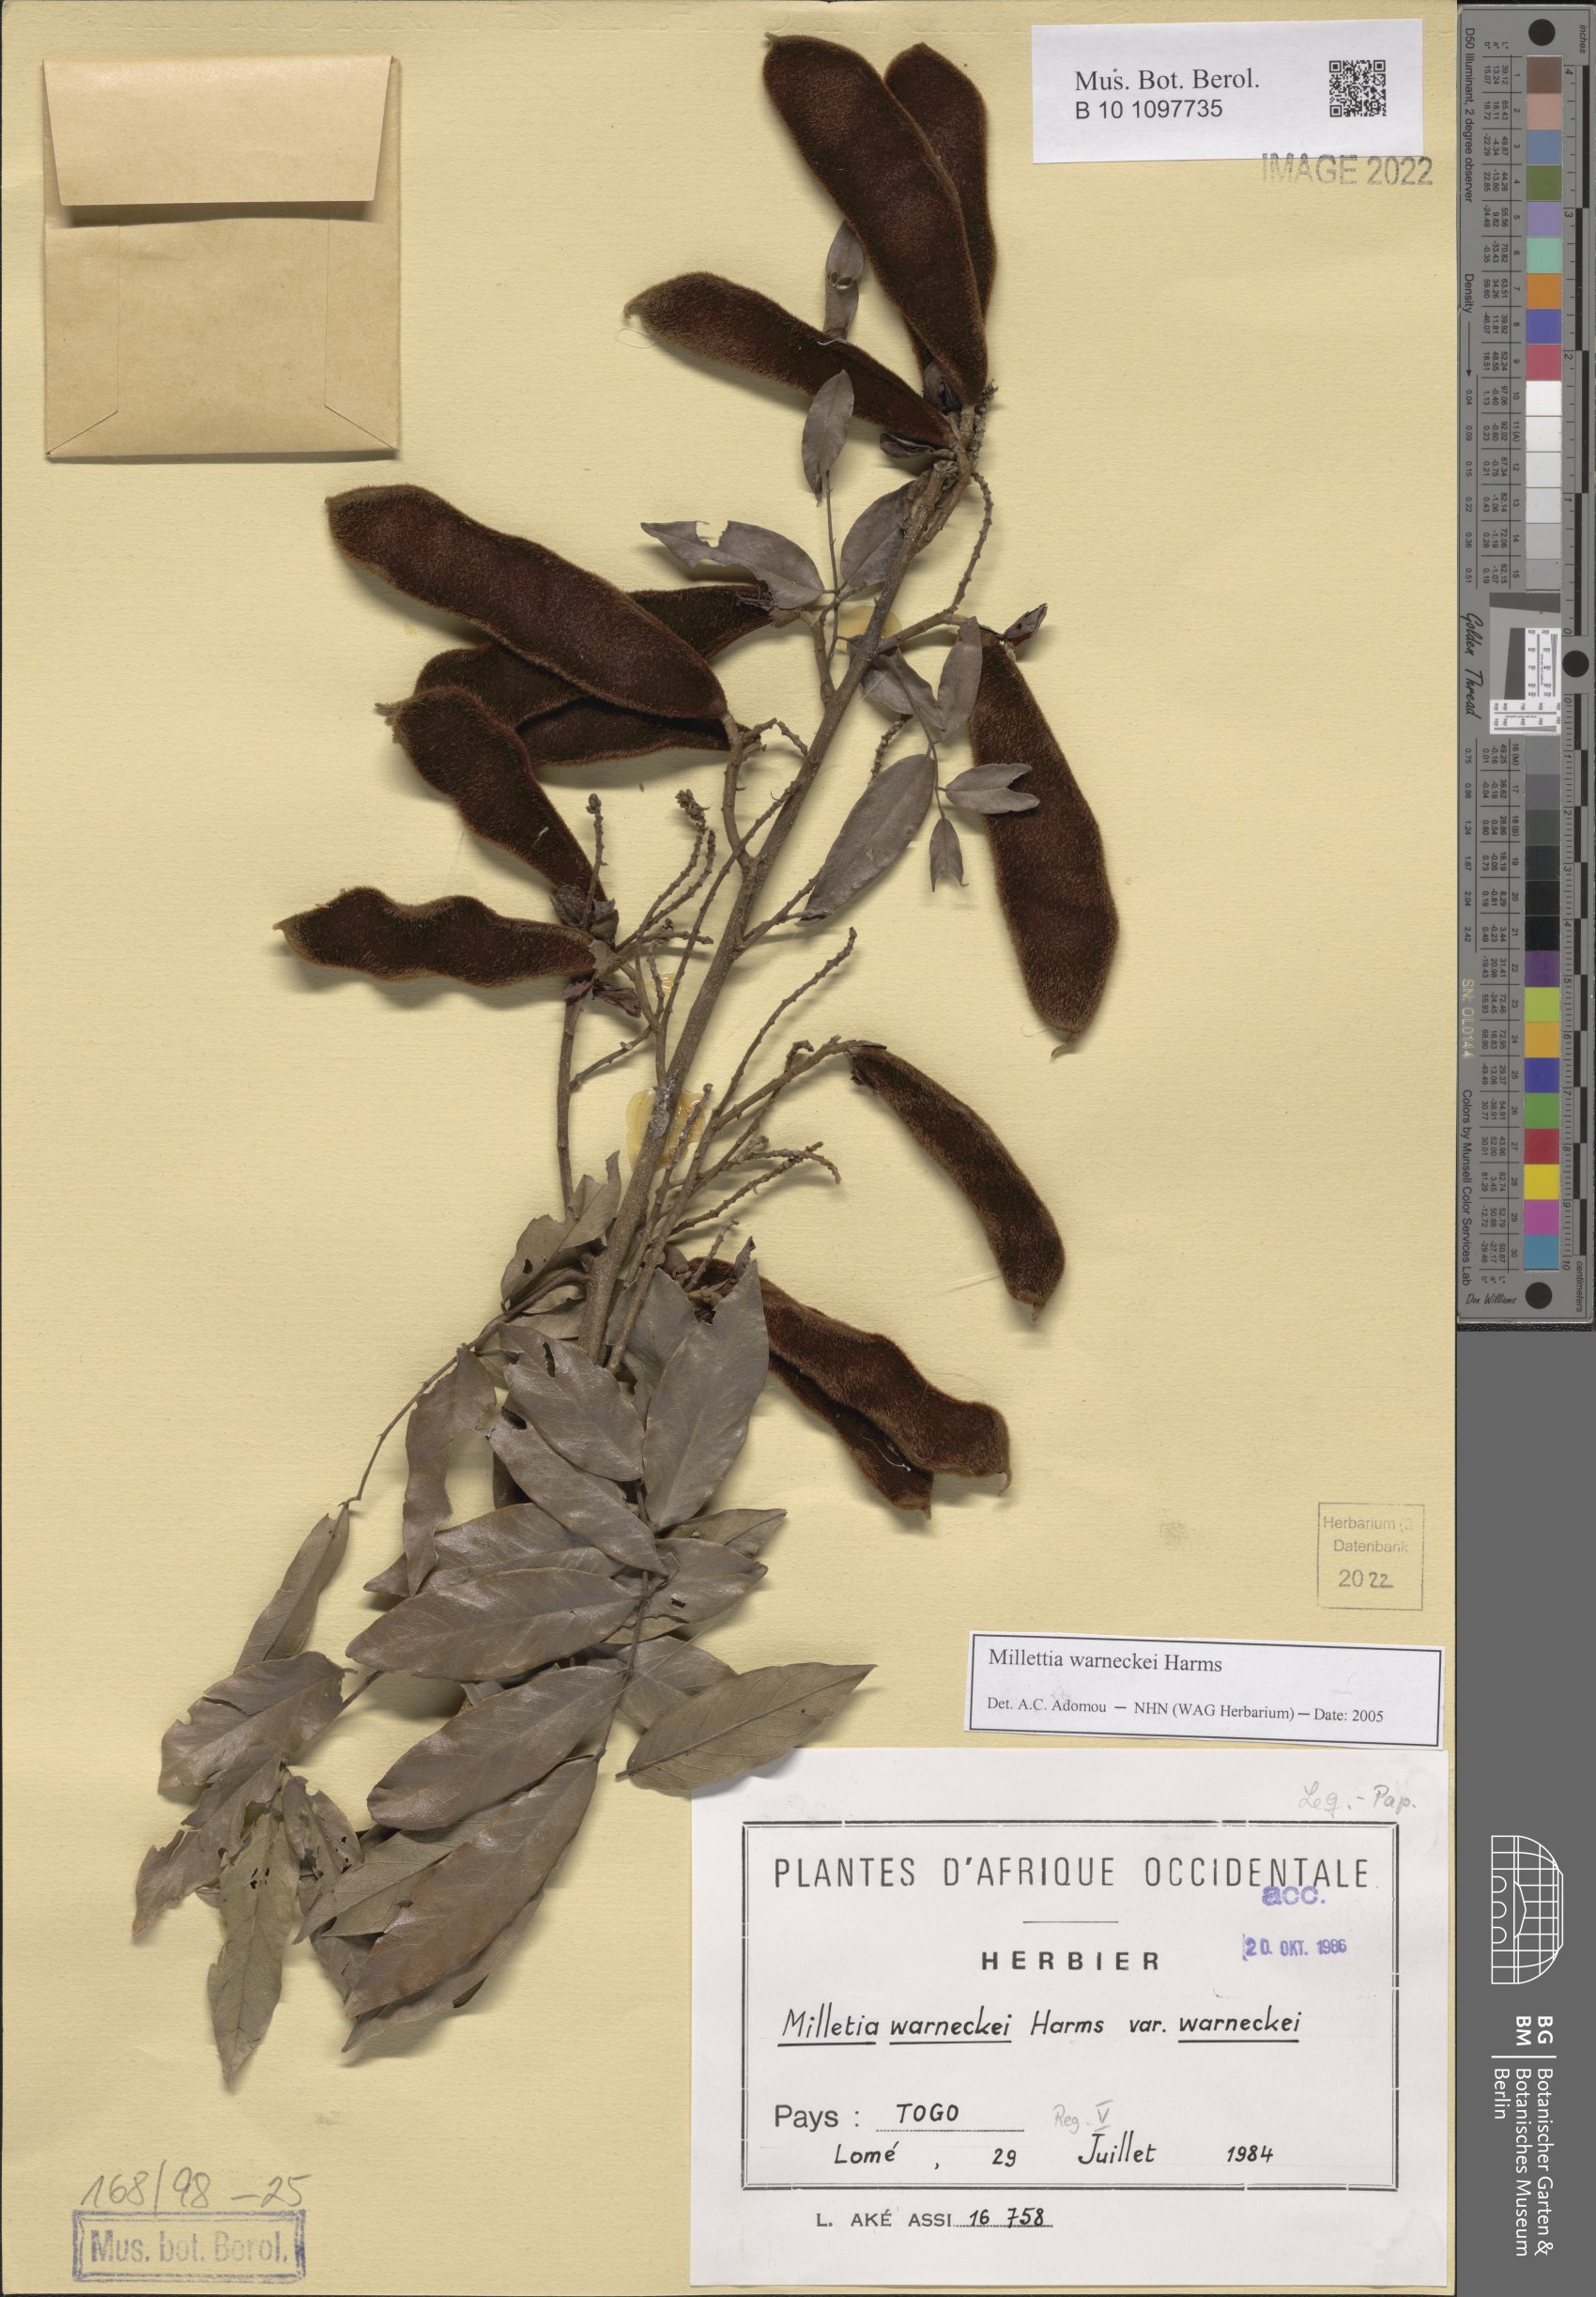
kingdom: Plantae
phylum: Tracheophyta
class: Magnoliopsida
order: Fabales
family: Fabaceae
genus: Millettia
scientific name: Millettia warneckei
